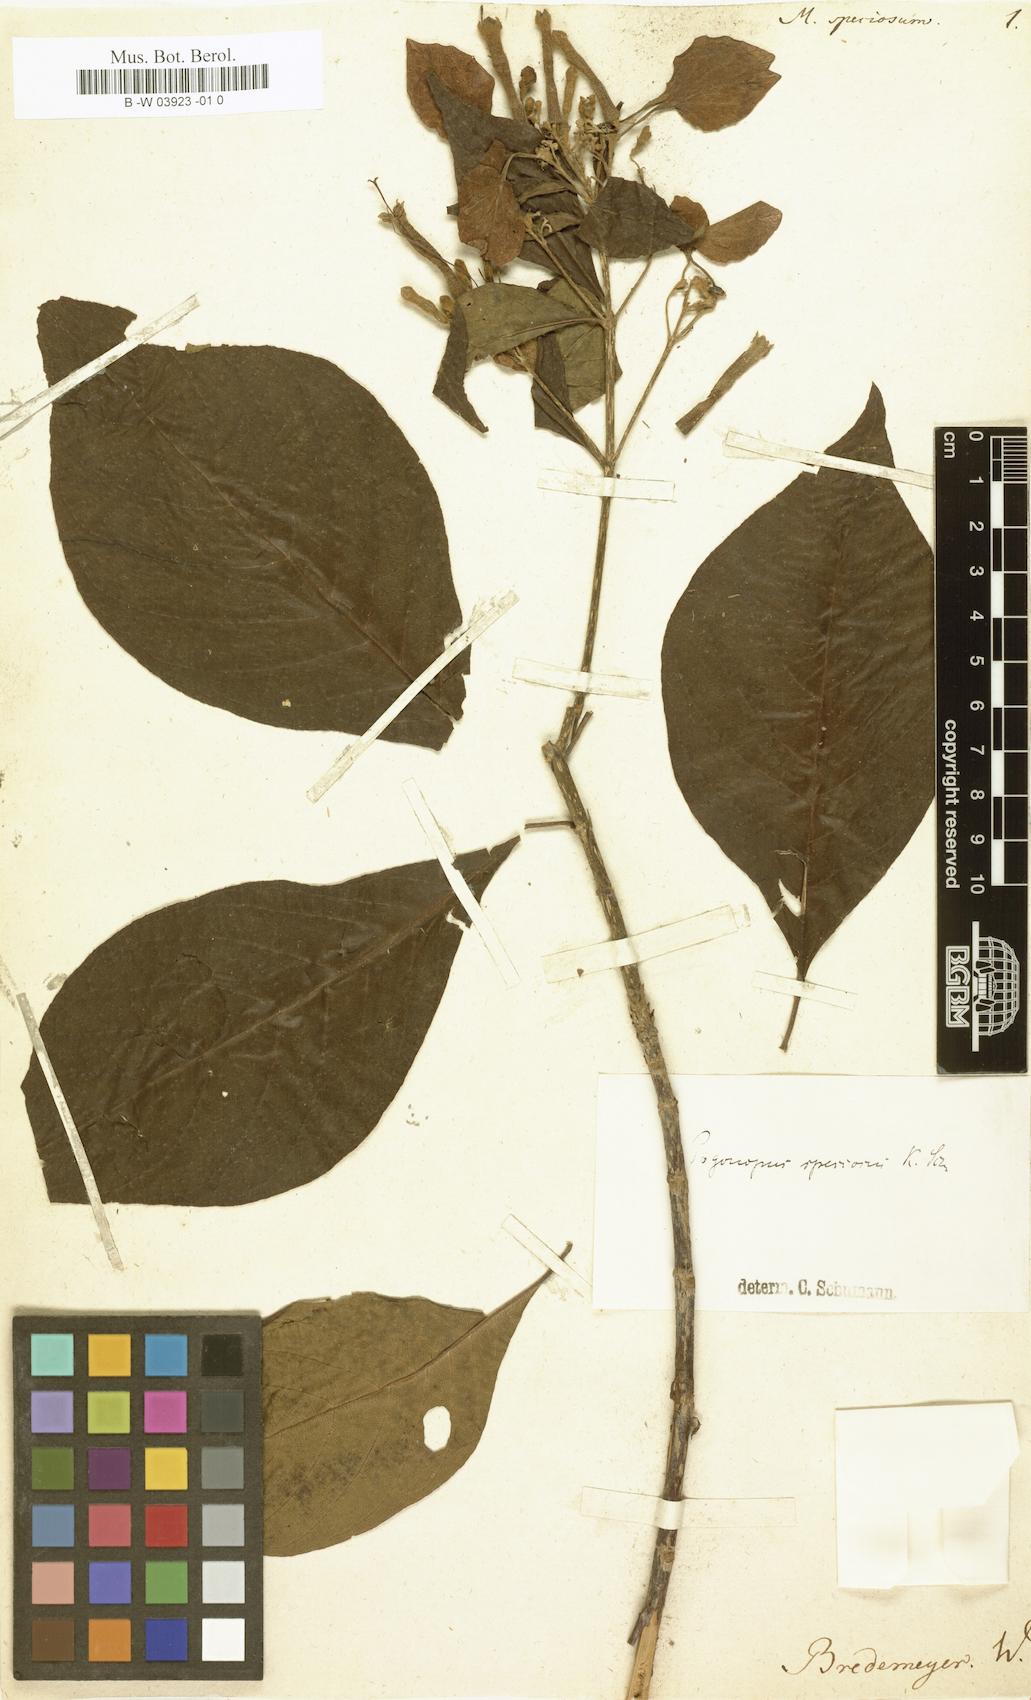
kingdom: Plantae
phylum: Tracheophyta
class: Magnoliopsida
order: Gentianales
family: Rubiaceae
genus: Pogonopus
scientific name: Pogonopus speciosus
